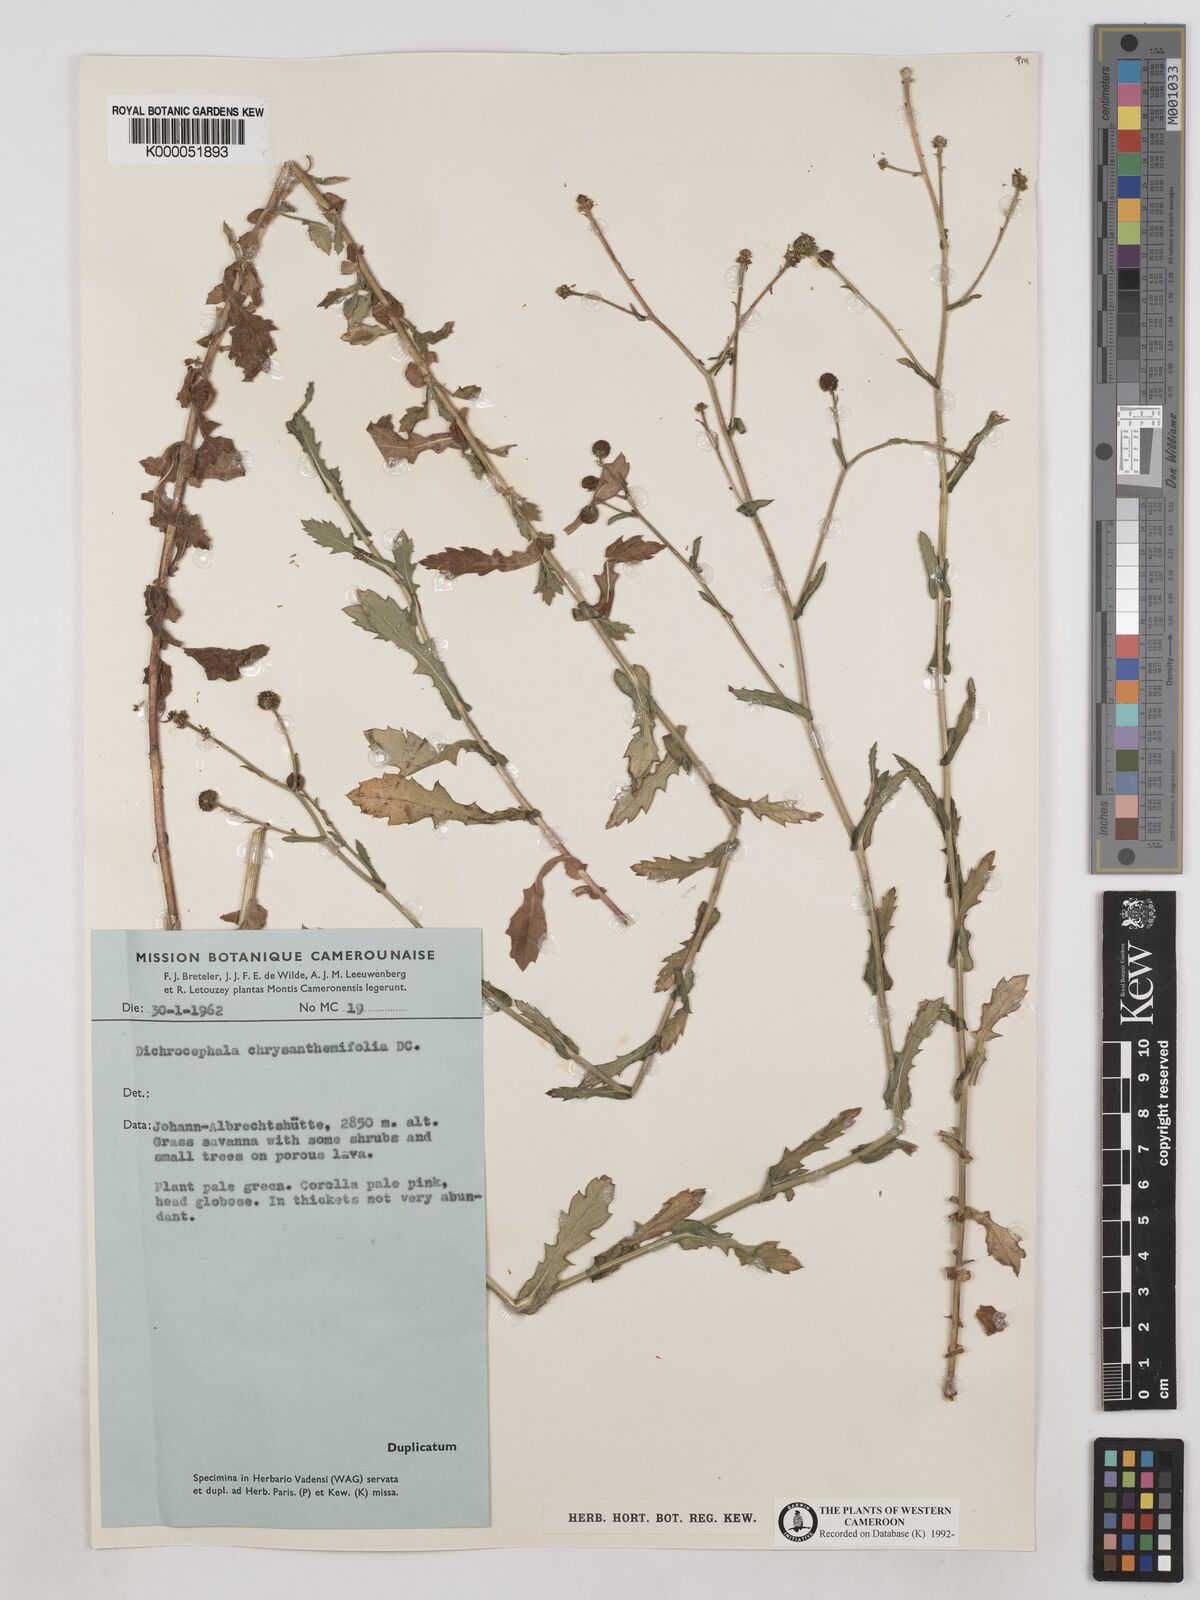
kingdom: Plantae
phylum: Tracheophyta
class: Magnoliopsida
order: Asterales
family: Asteraceae
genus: Dichrocephala
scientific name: Dichrocephala chrysanthemifolia
